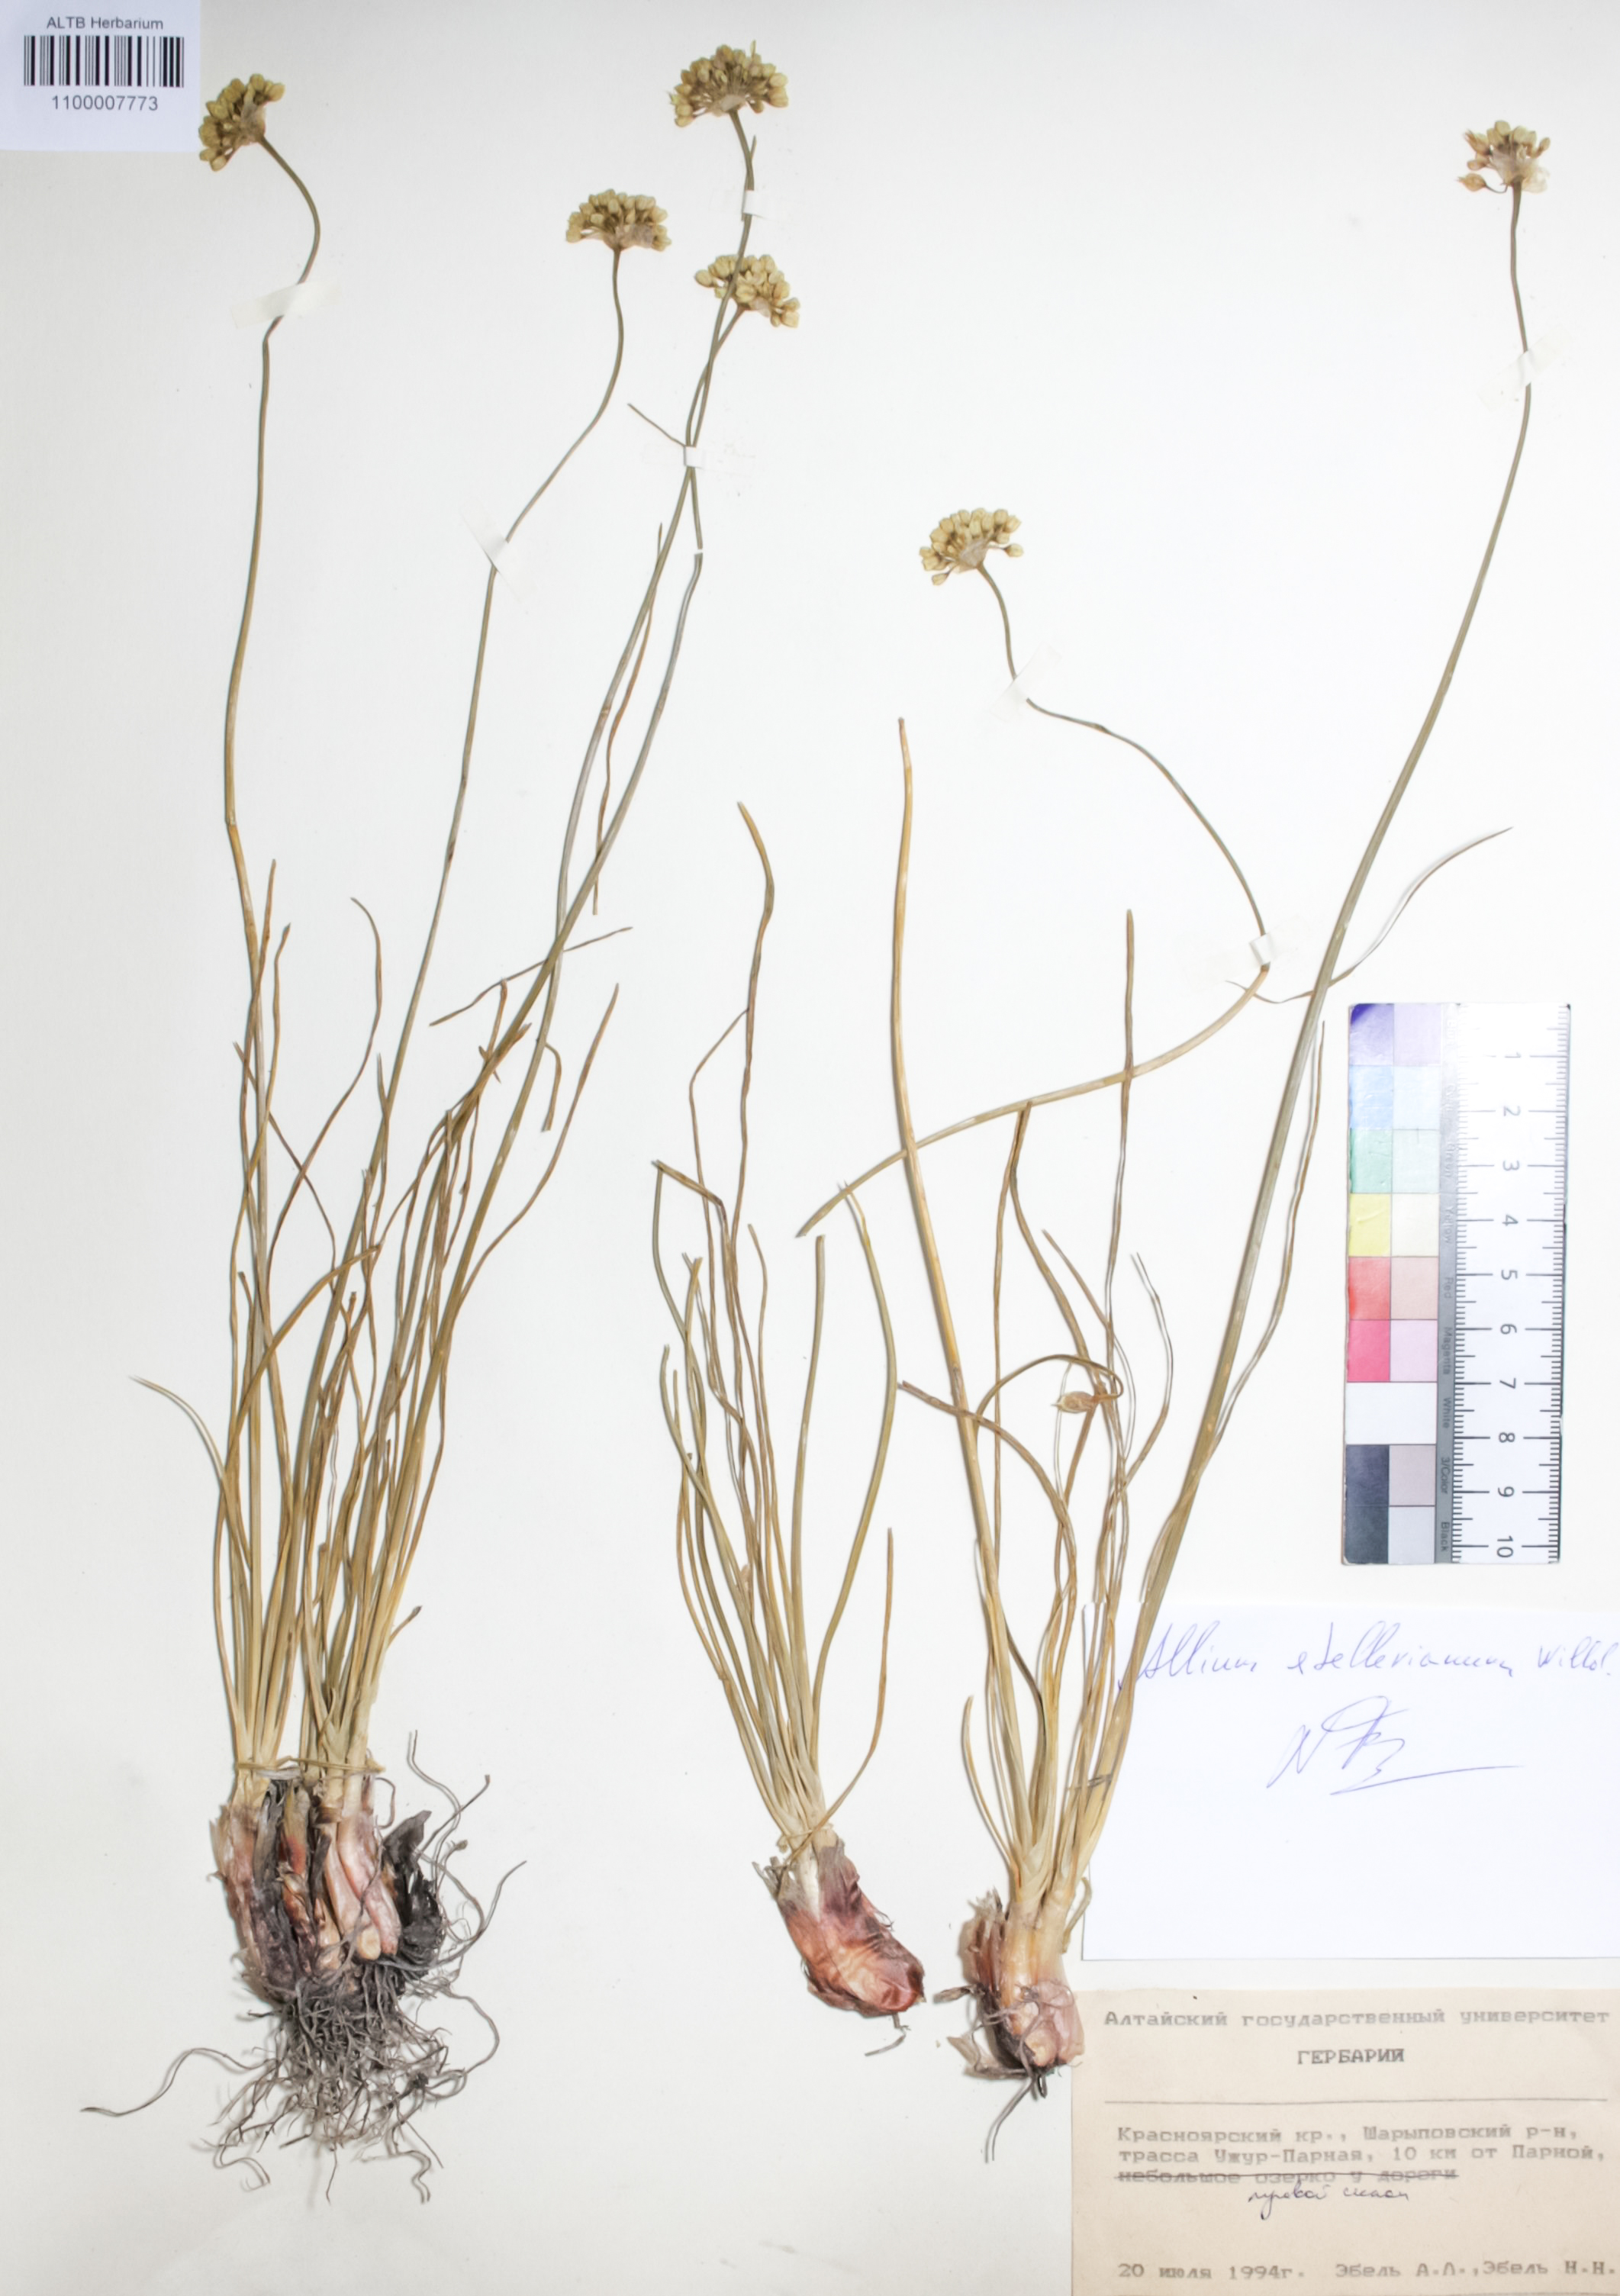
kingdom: Plantae
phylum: Tracheophyta
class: Liliopsida
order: Asparagales
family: Amaryllidaceae
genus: Allium
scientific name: Allium stellerianum
